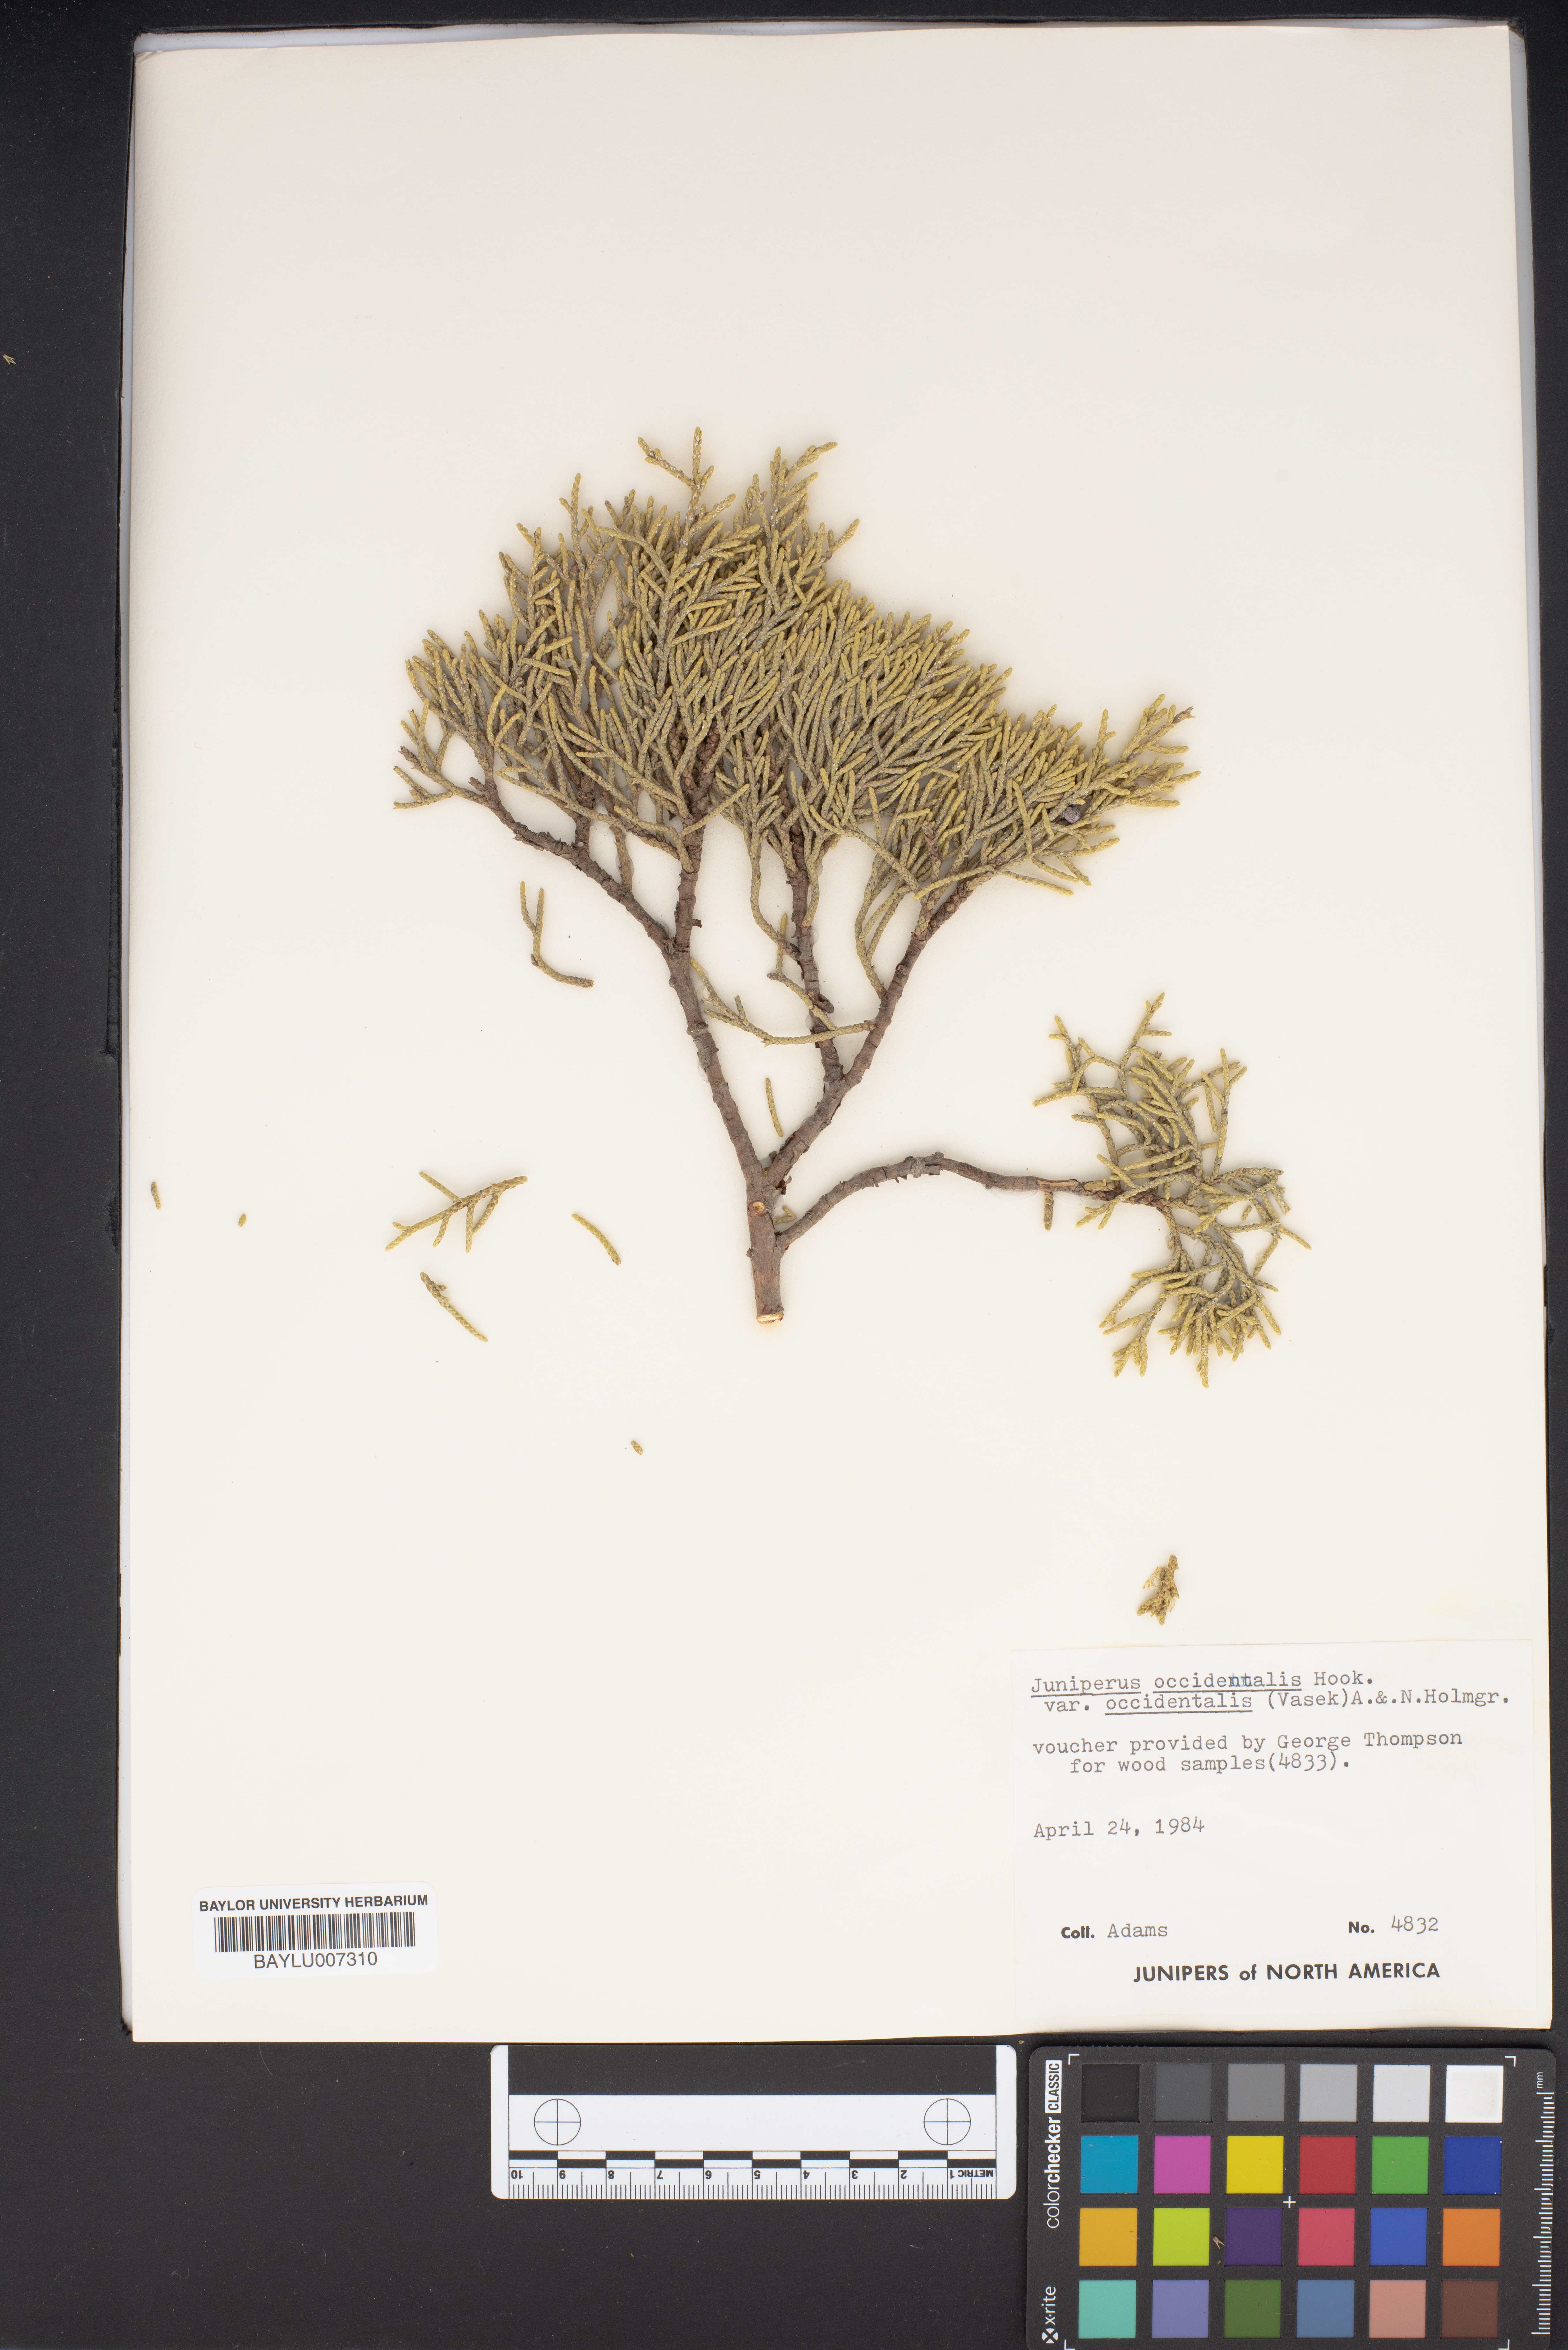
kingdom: Plantae
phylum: Tracheophyta
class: Pinopsida
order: Pinales
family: Cupressaceae
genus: Juniperus
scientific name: Juniperus occidentalis
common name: Western juniper
